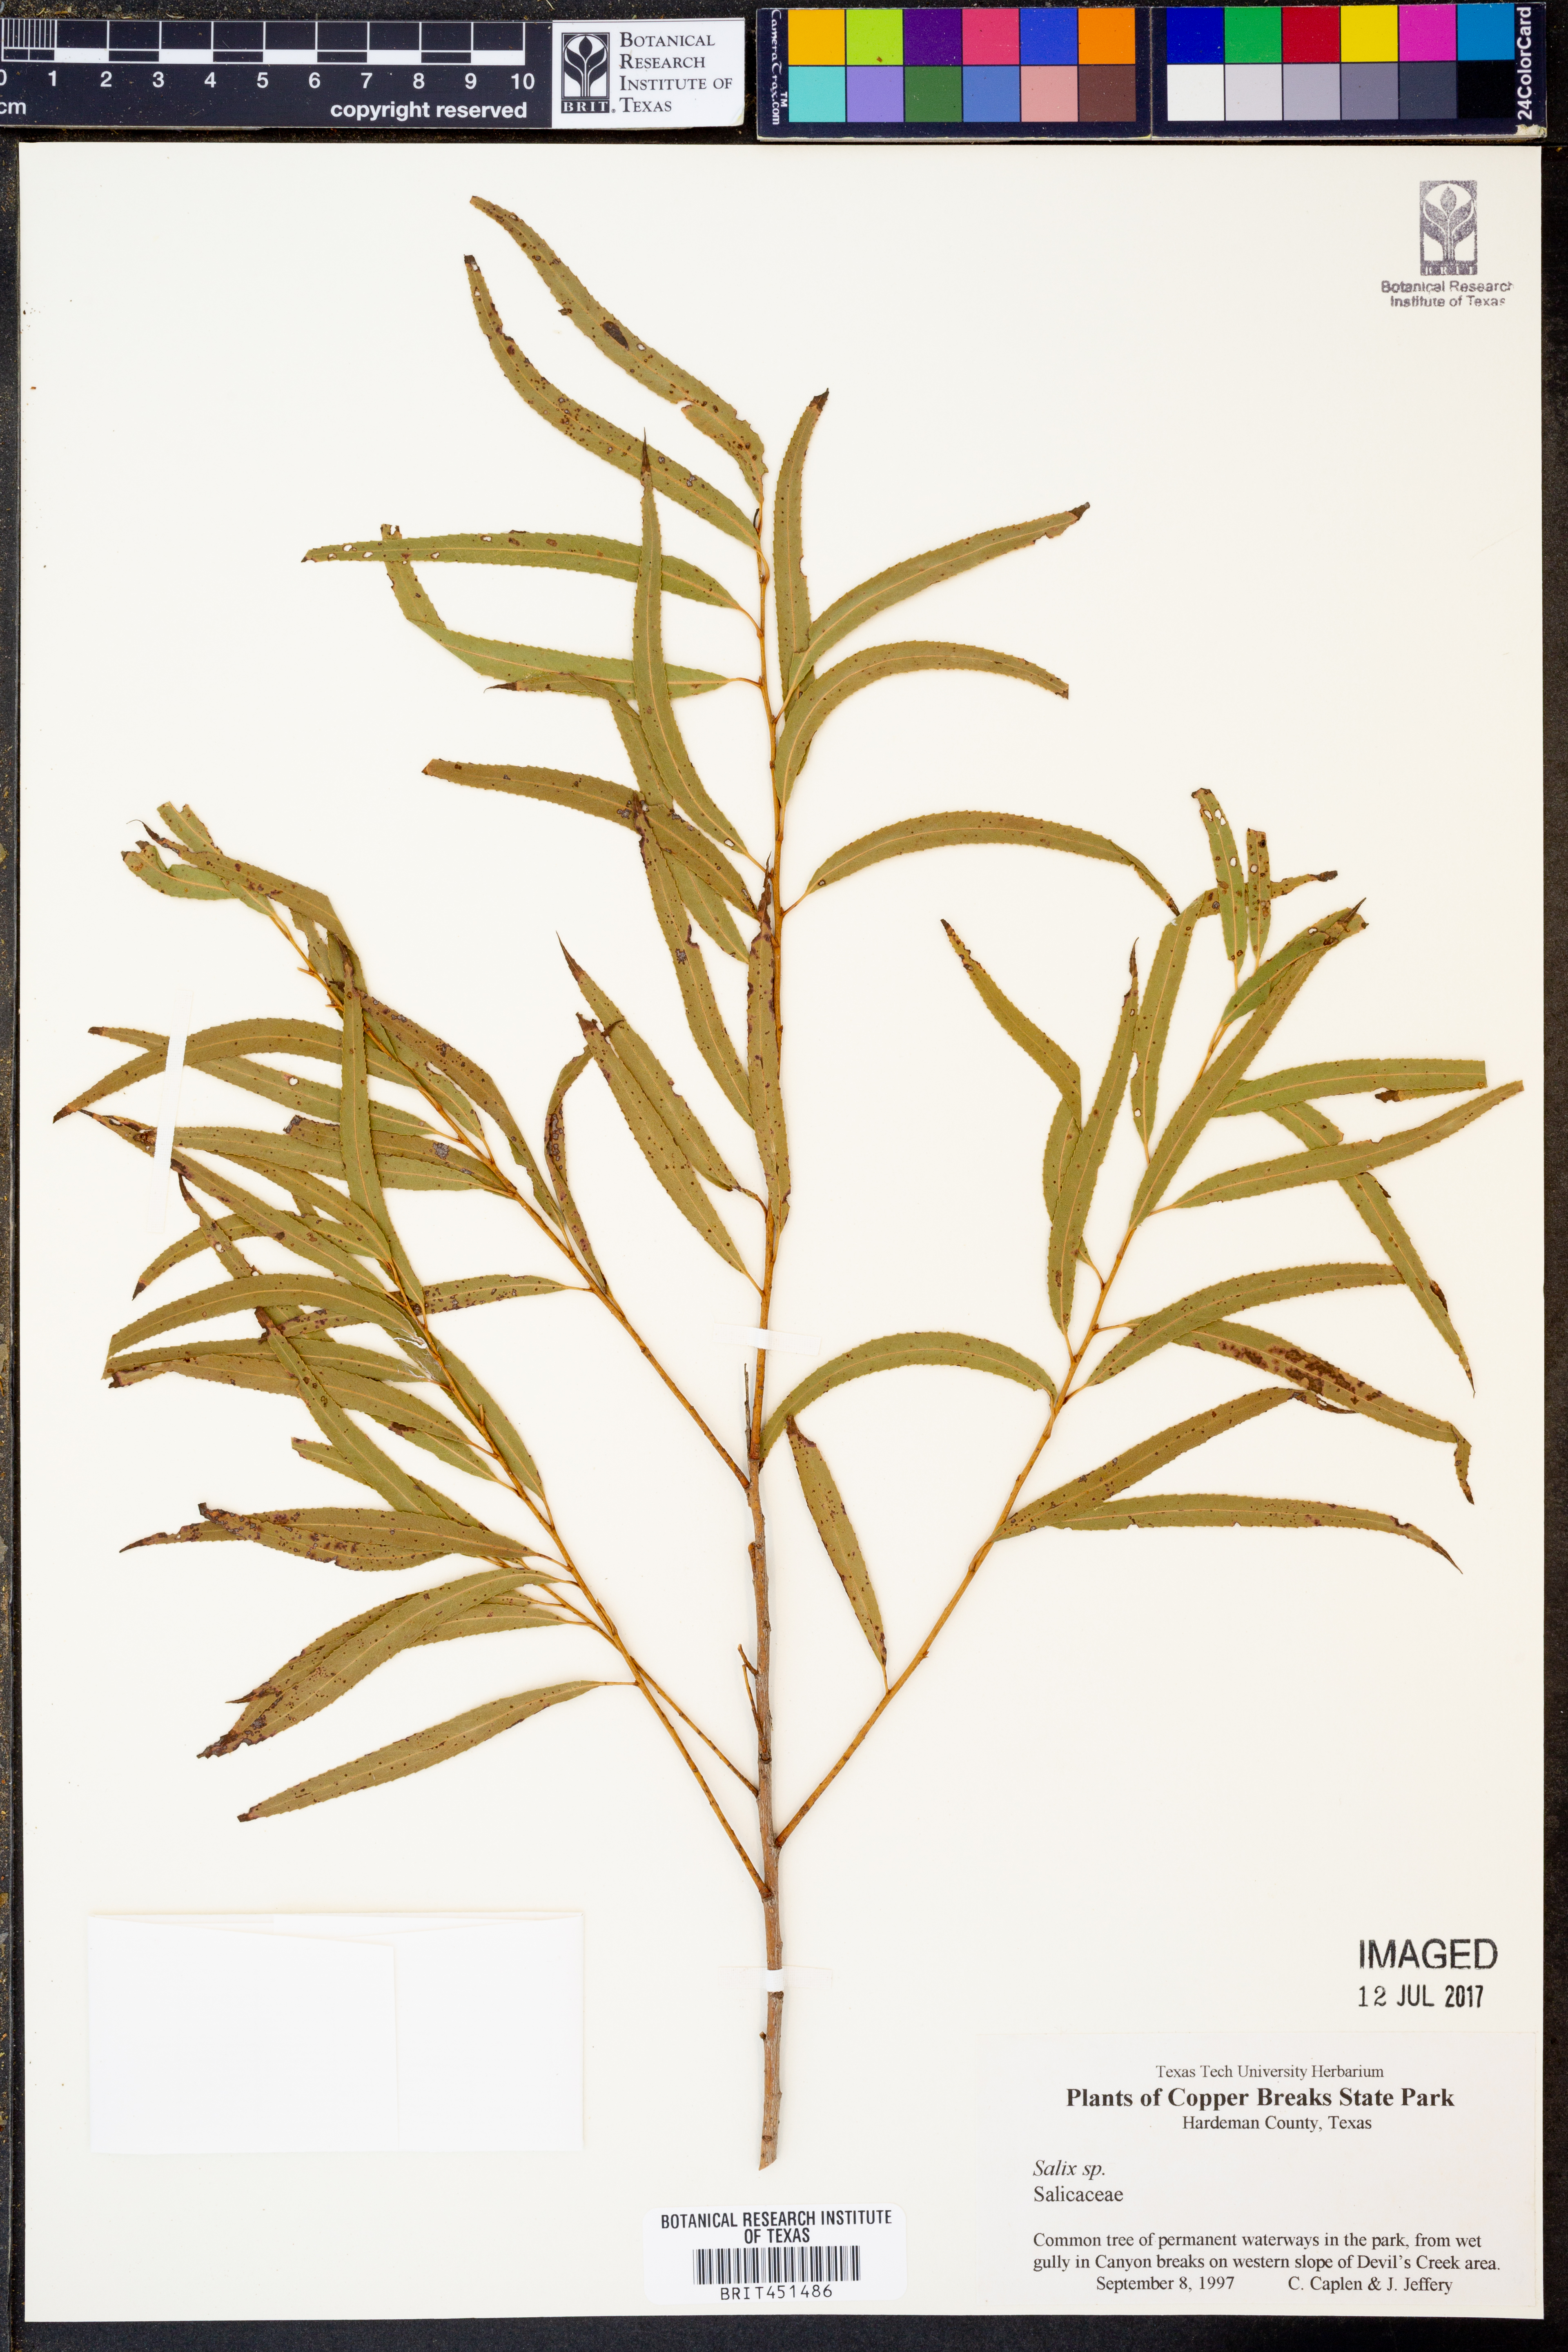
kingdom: Plantae
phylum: Tracheophyta
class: Magnoliopsida
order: Malpighiales
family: Salicaceae
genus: Salix
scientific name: Salix
